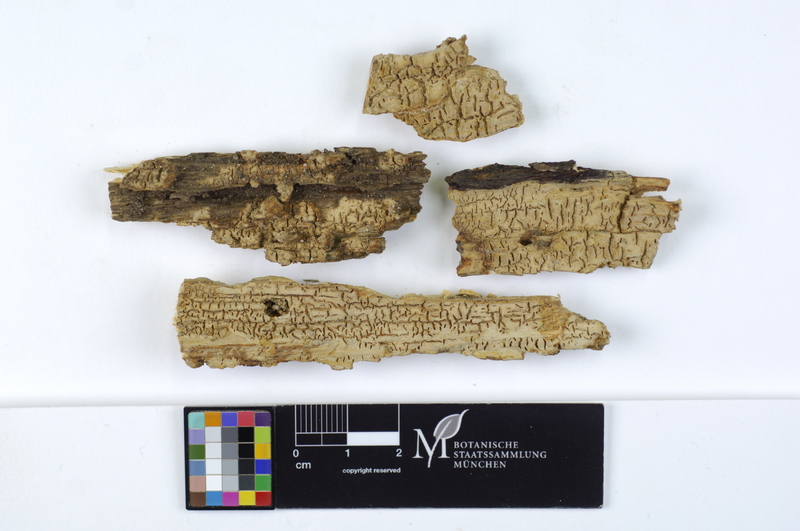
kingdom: Plantae
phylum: Tracheophyta
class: Magnoliopsida
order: Fagales
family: Fagaceae
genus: Quercus
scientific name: Quercus
